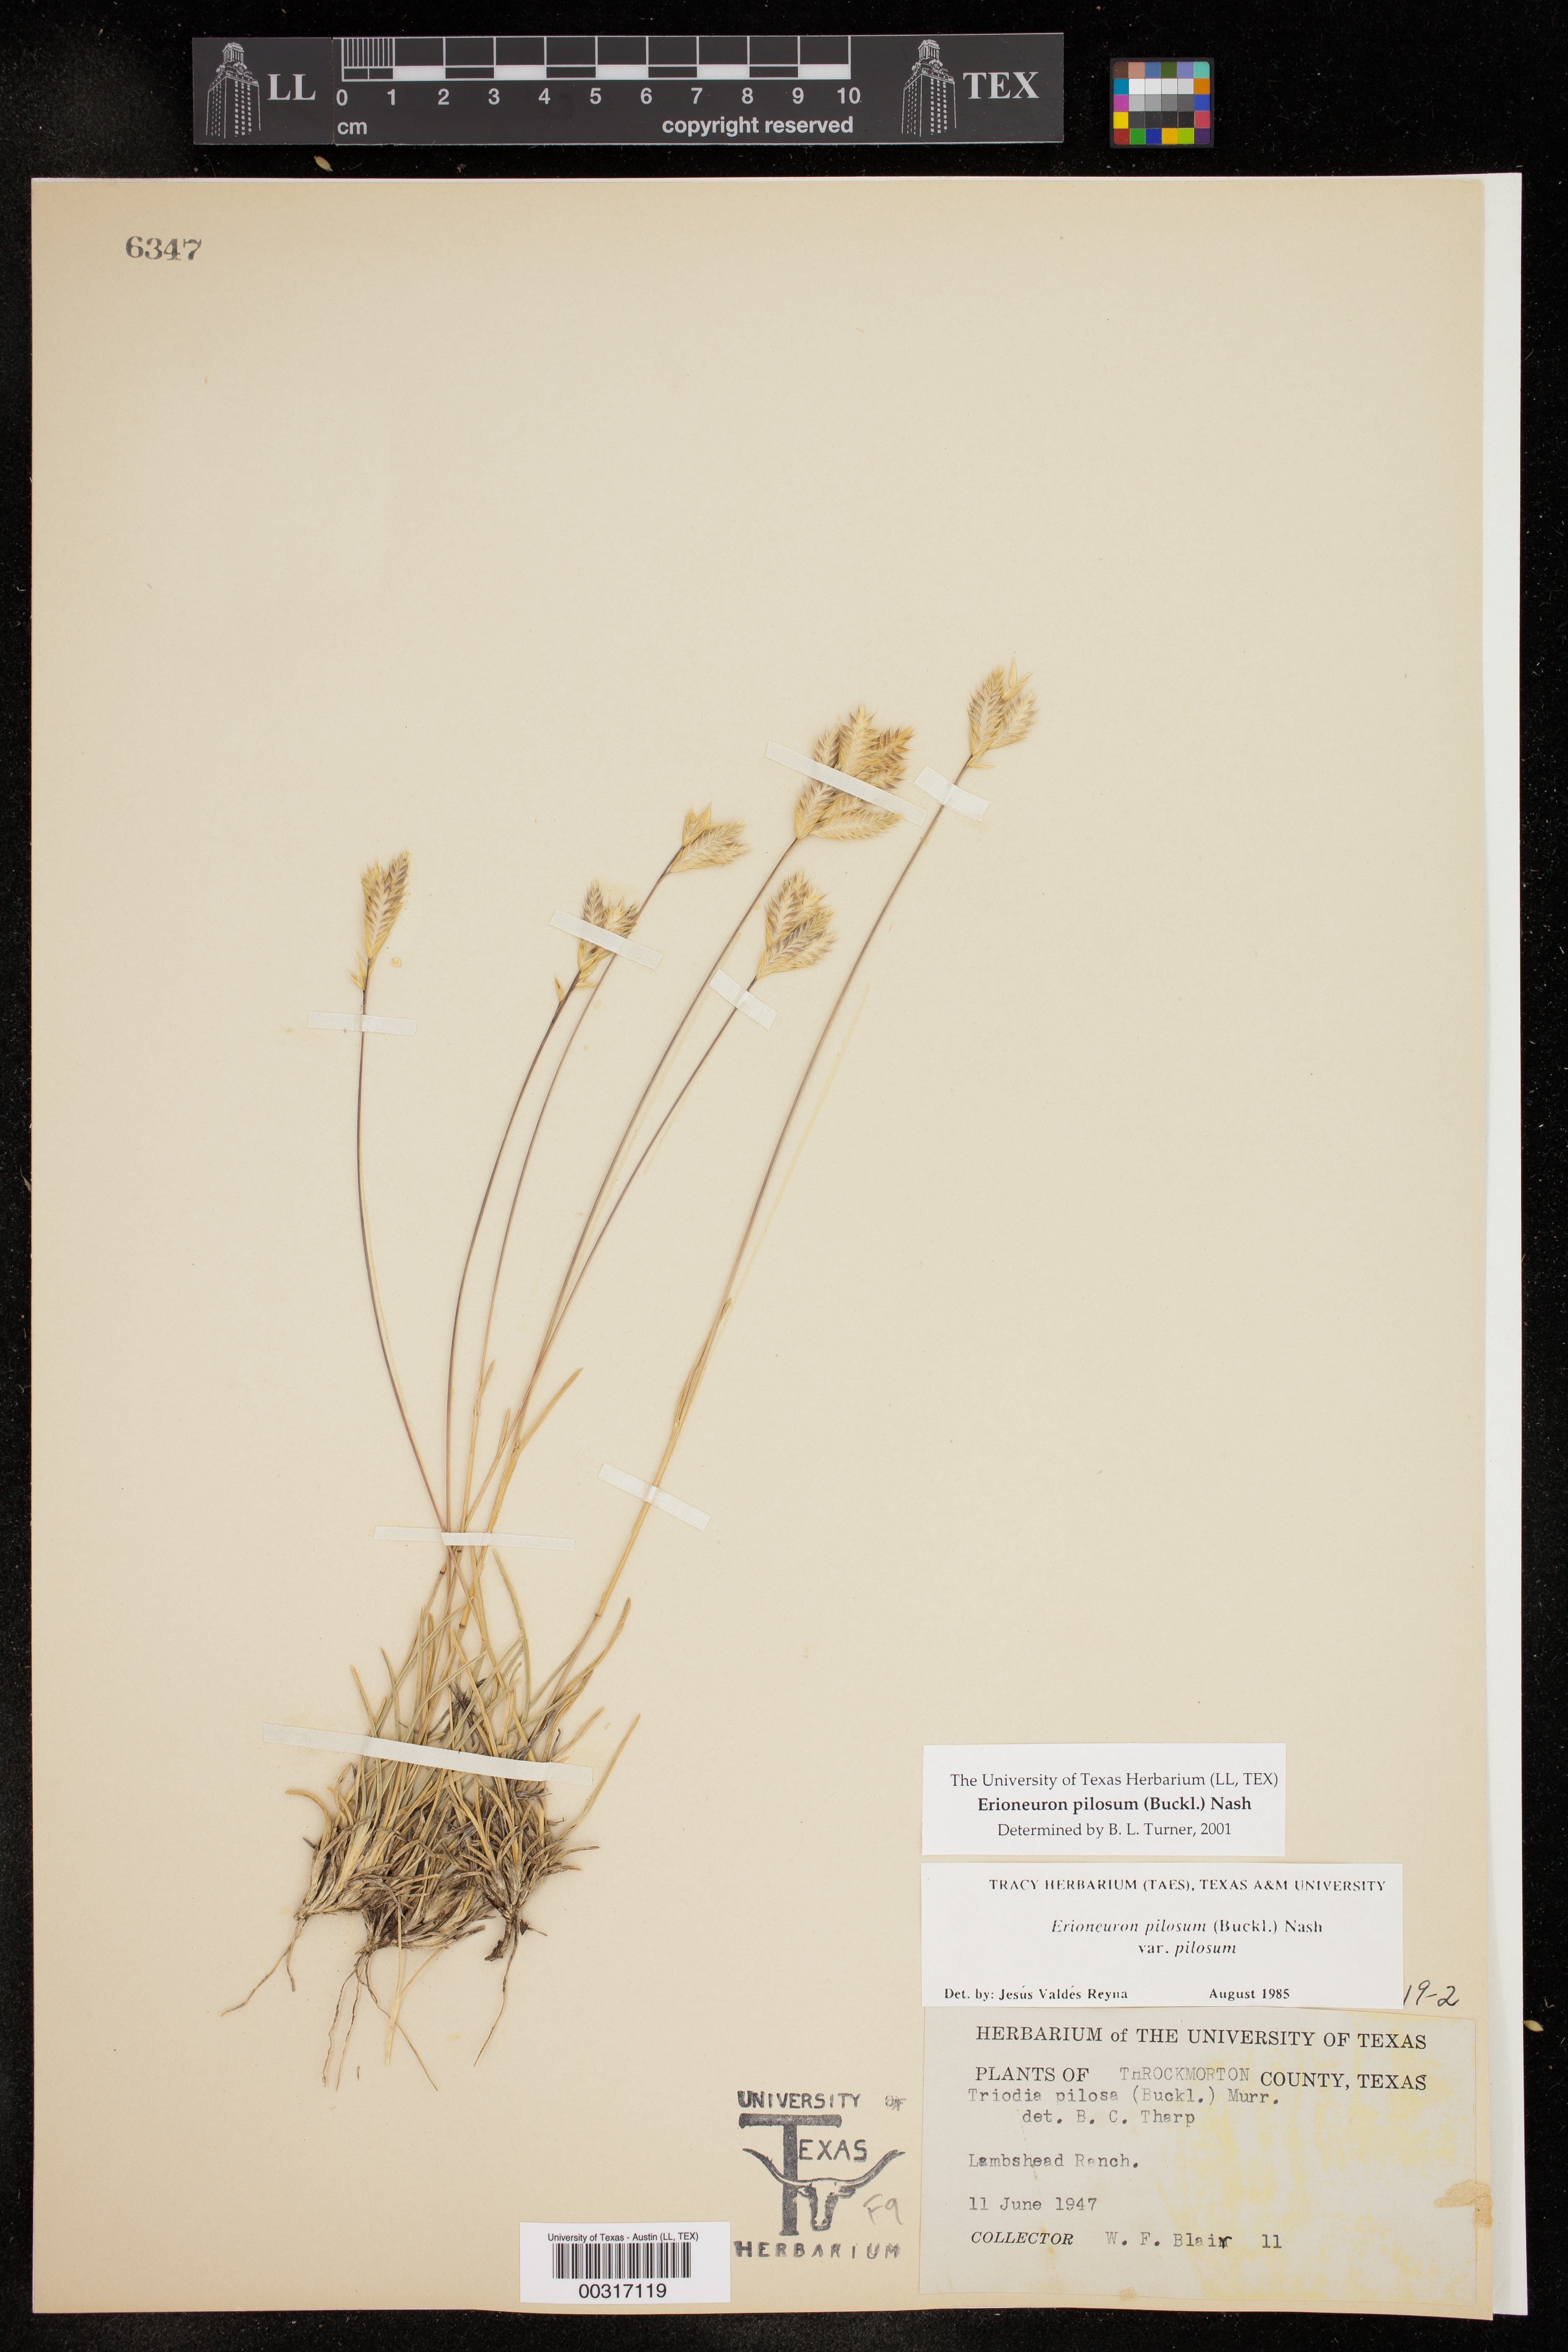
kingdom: Plantae
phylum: Tracheophyta
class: Liliopsida
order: Poales
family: Poaceae
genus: Erioneuron
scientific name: Erioneuron pilosum
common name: Hairy woolly grass
